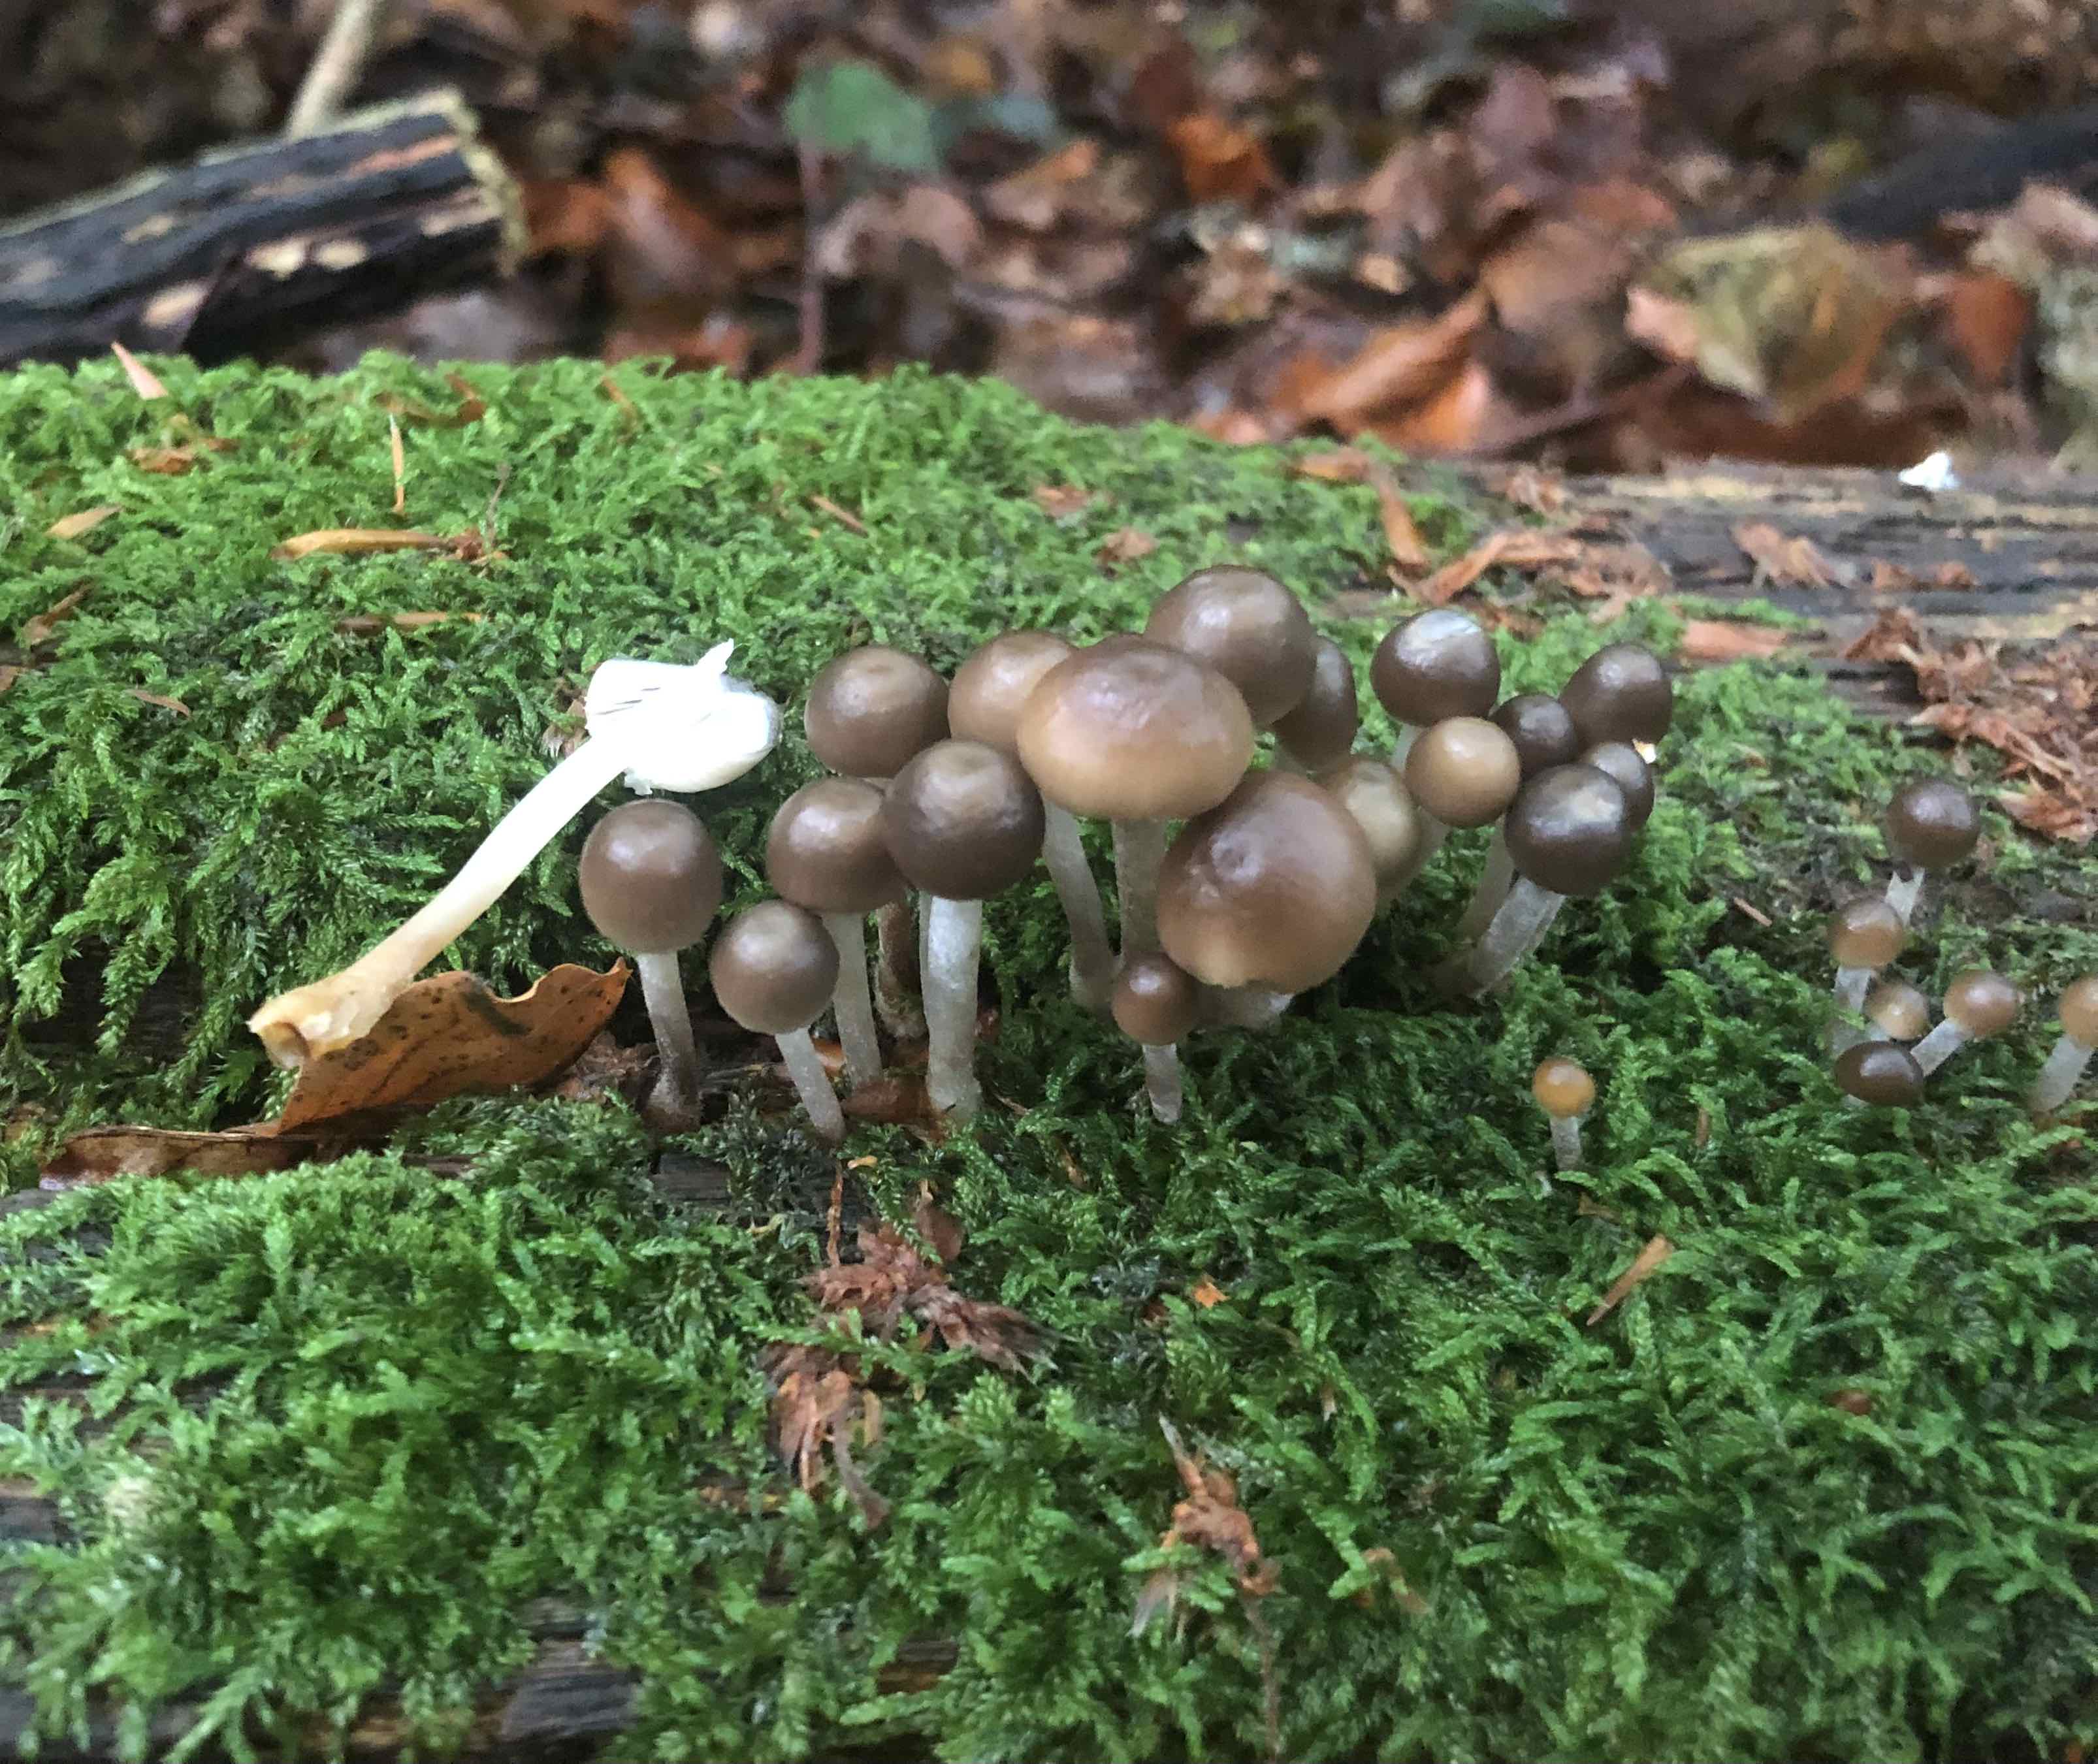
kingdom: Fungi
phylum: Basidiomycota
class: Agaricomycetes
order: Agaricales
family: Mycenaceae
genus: Mycena
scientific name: Mycena
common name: huesvamp
